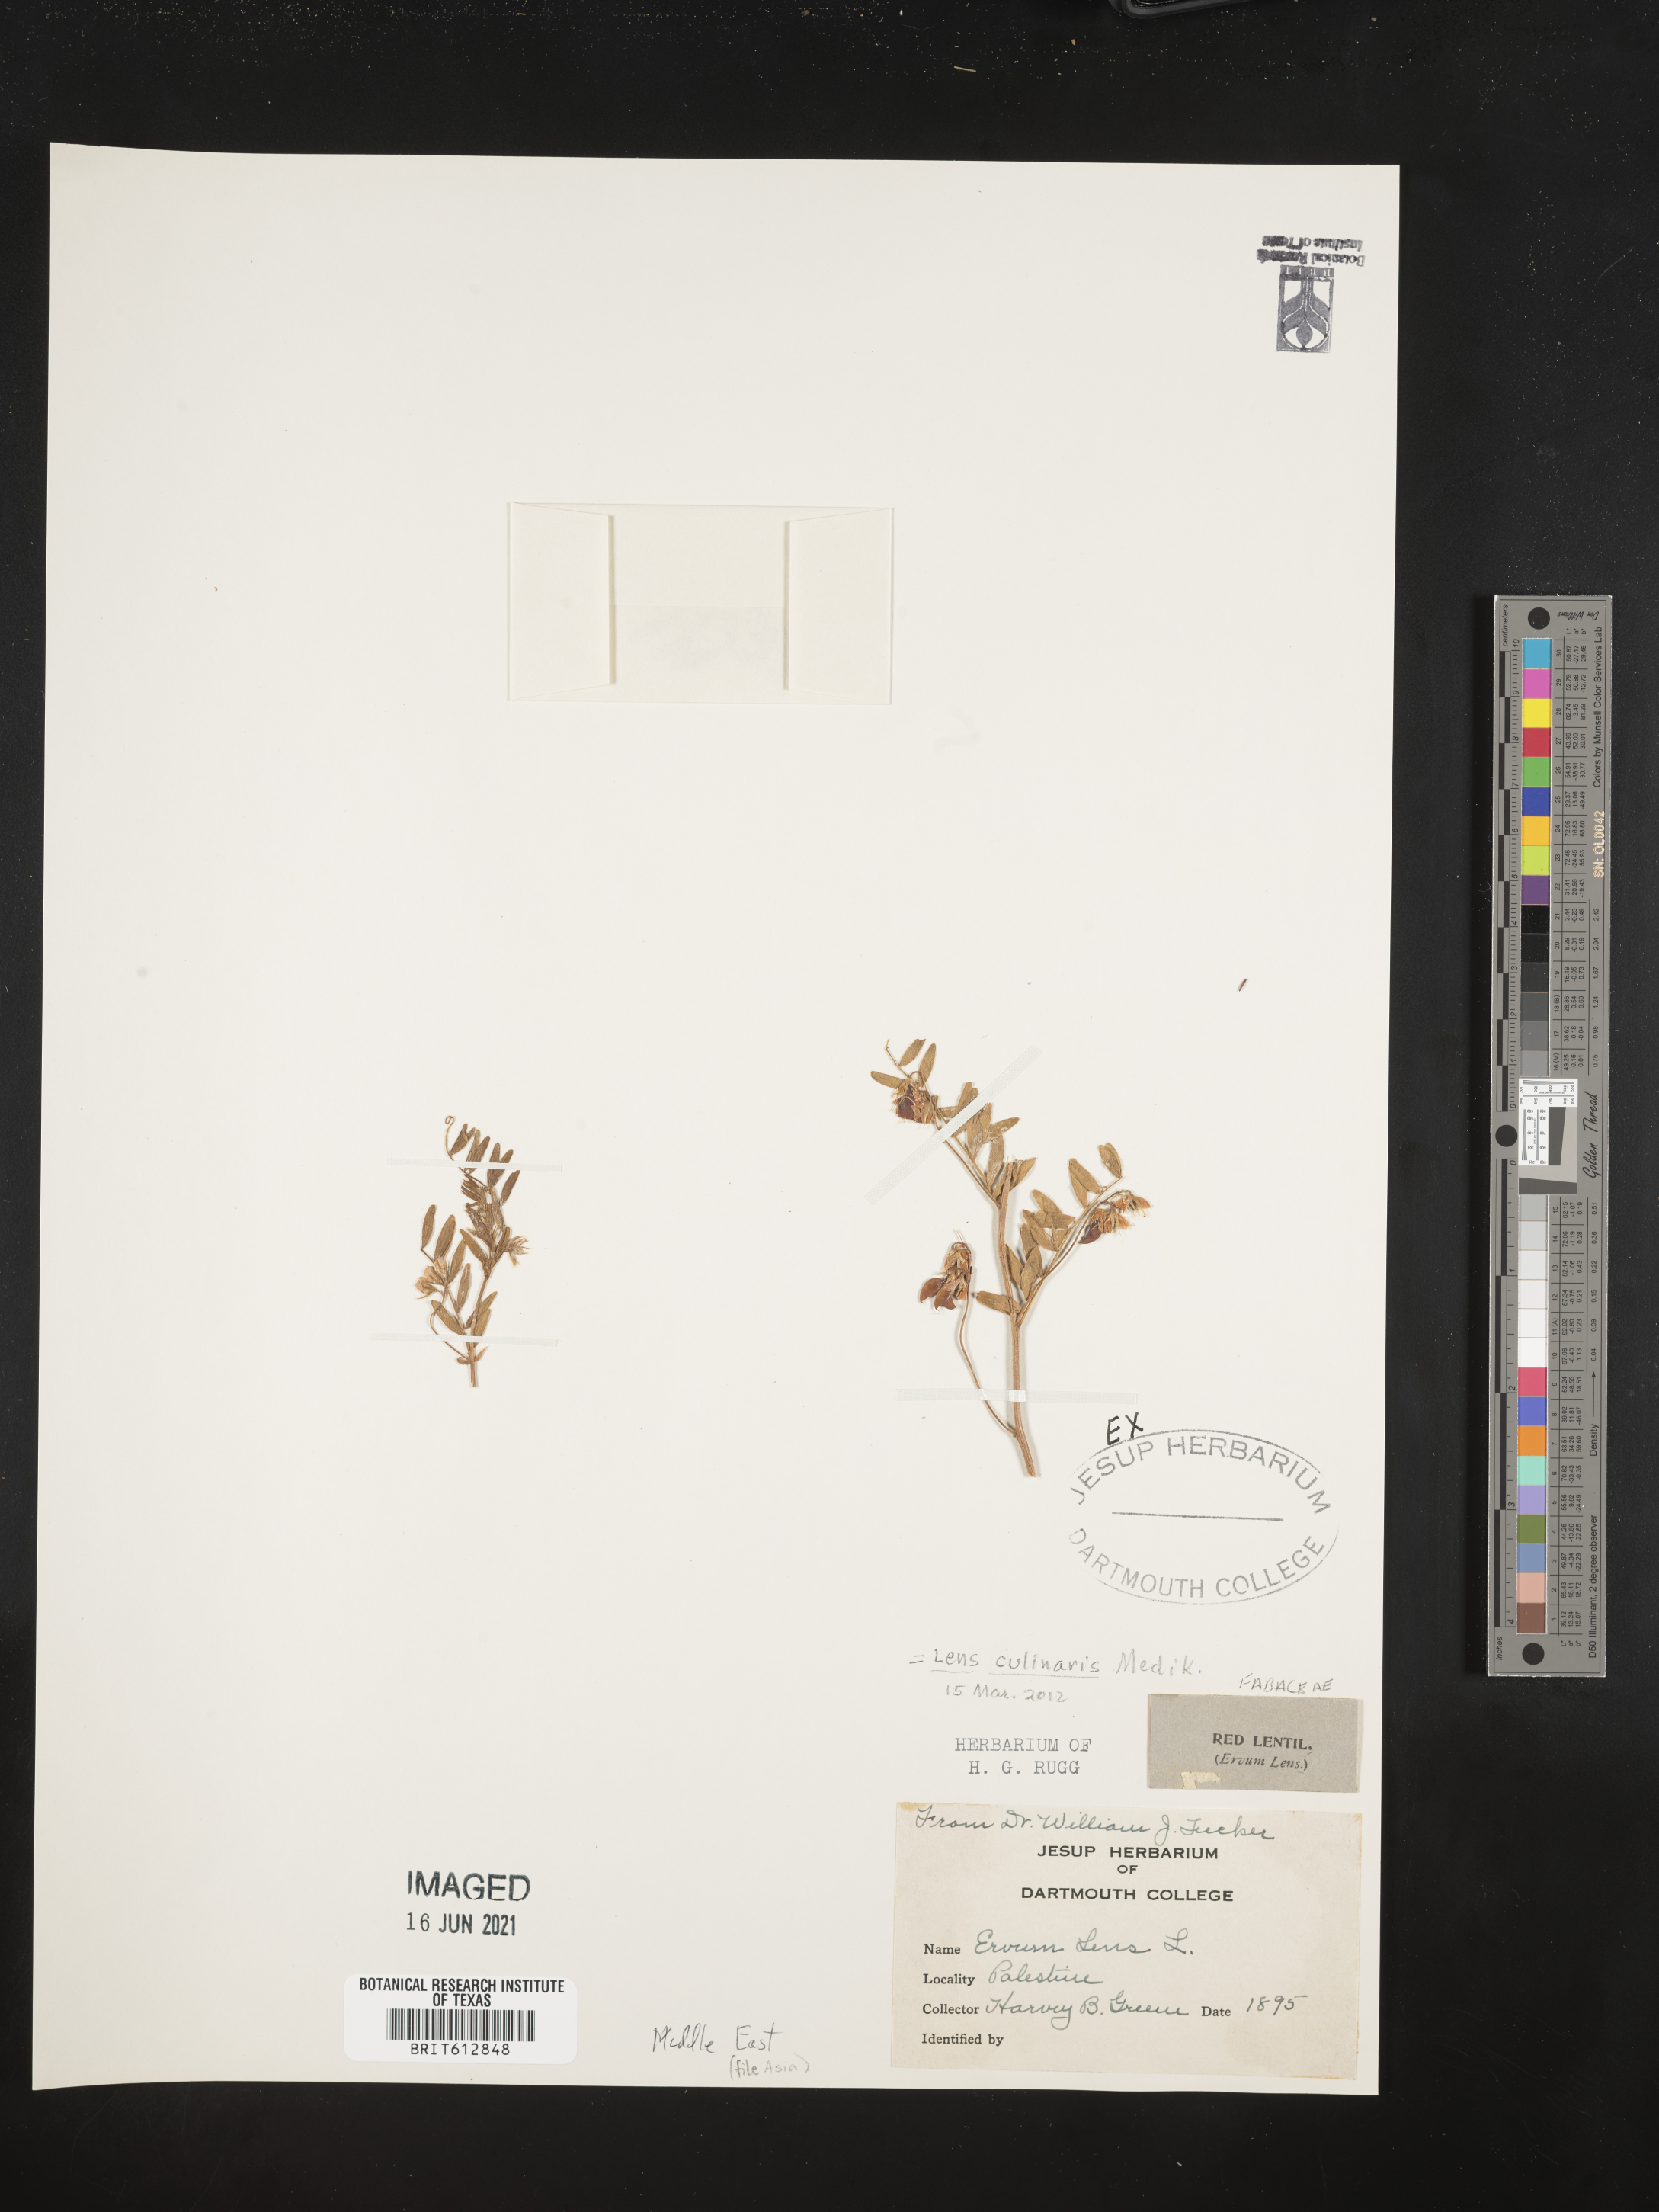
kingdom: Plantae
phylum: Tracheophyta
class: Magnoliopsida
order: Fabales
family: Fabaceae
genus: Vicia
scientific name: Vicia lens
